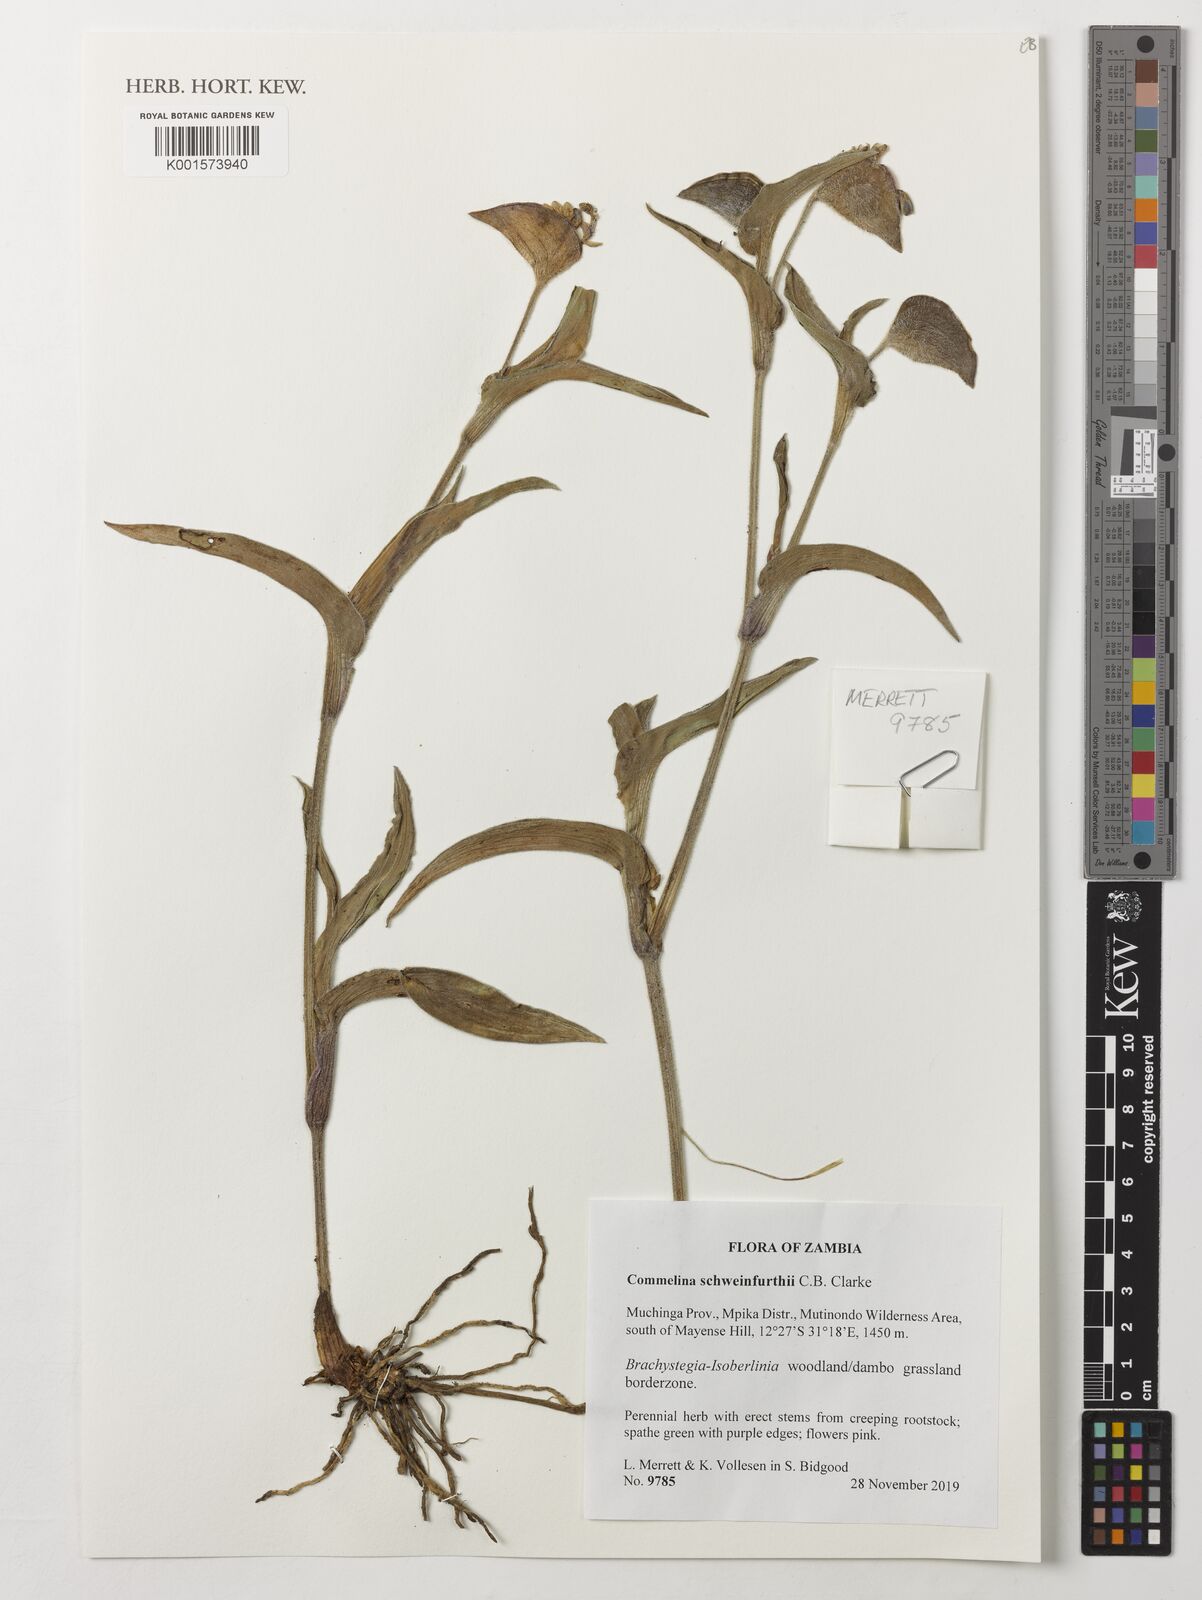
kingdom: Plantae
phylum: Tracheophyta
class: Liliopsida
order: Commelinales
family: Commelinaceae
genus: Commelina
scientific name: Commelina schweinfurthii
